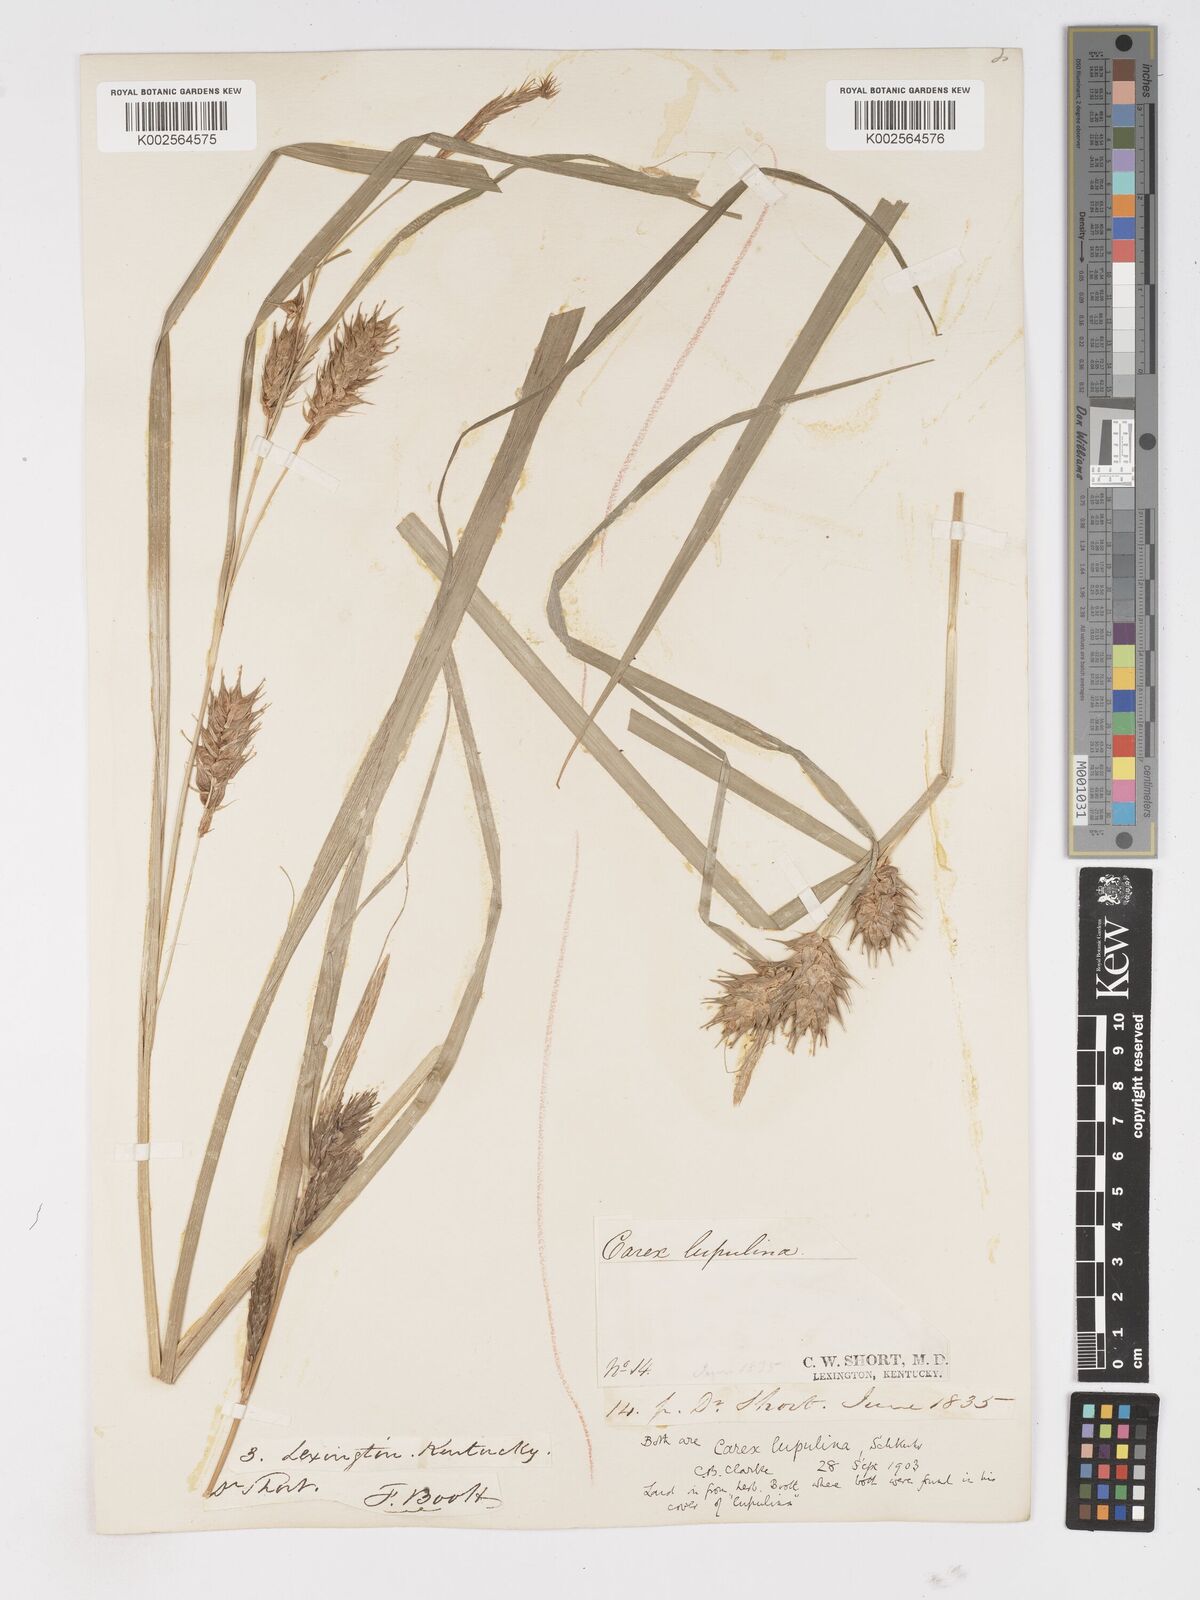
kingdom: Plantae
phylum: Tracheophyta
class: Liliopsida
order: Poales
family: Cyperaceae
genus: Carex
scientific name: Carex lupulina
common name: Hop sedge
